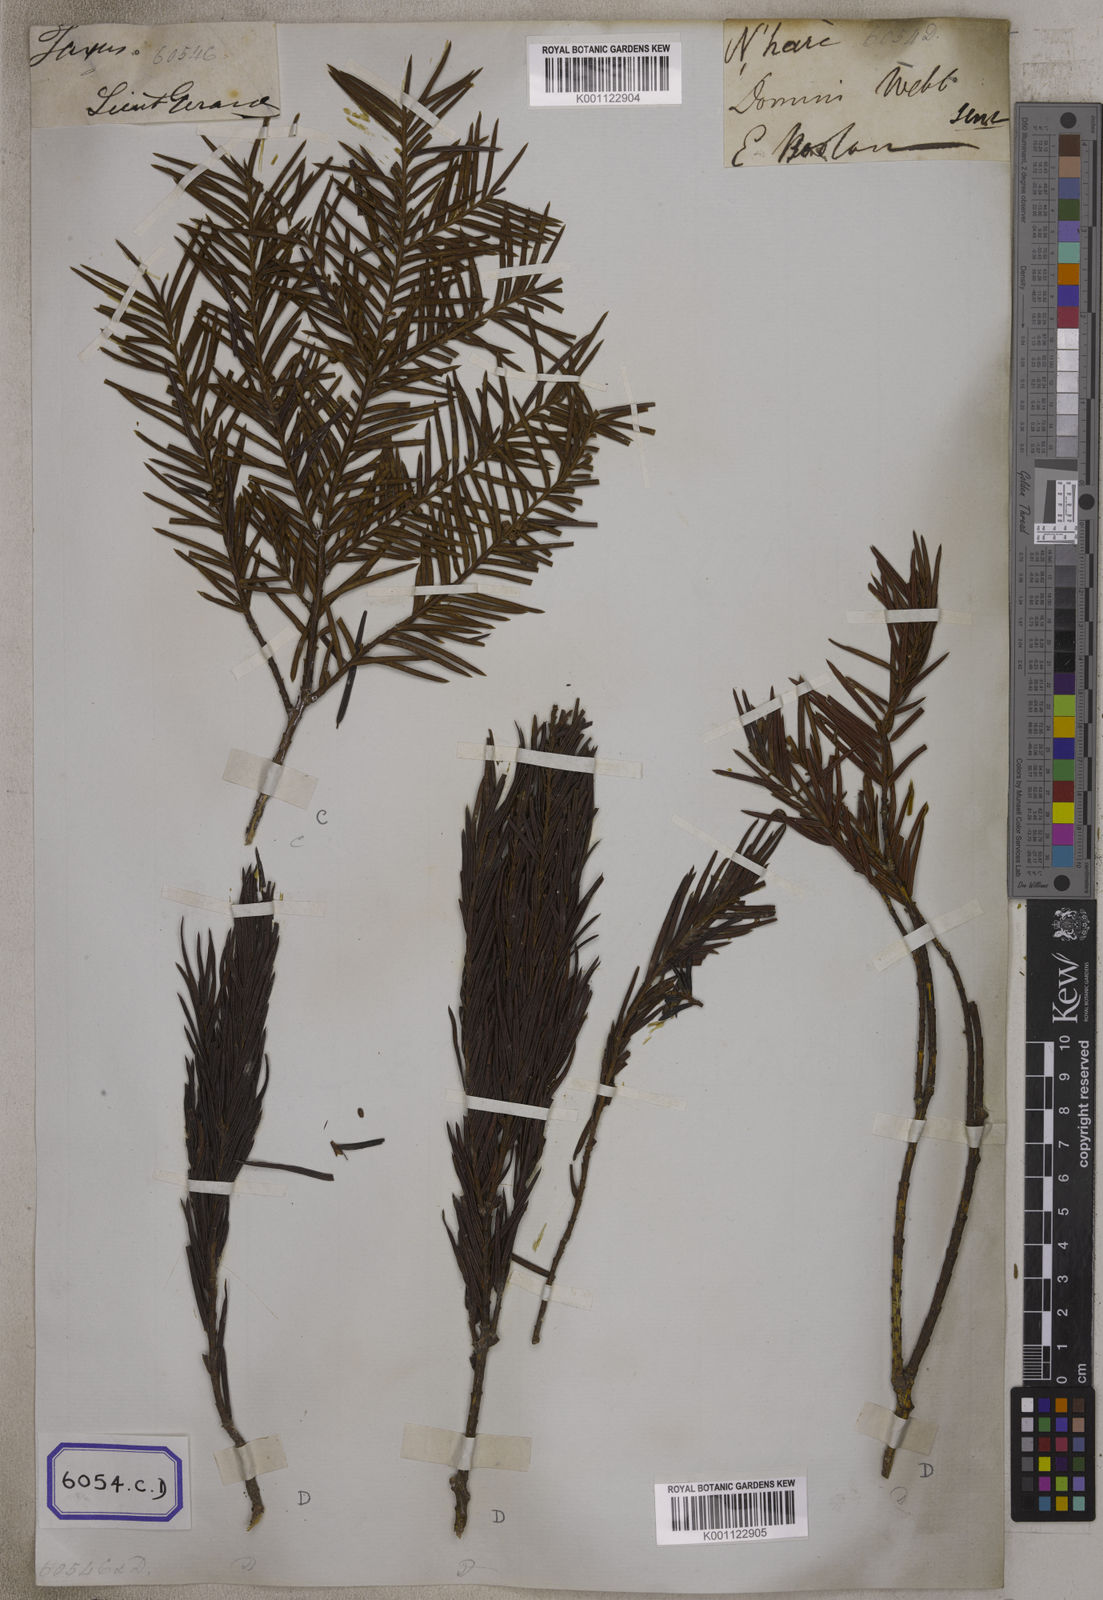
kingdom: Plantae
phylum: Tracheophyta
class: Pinopsida
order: Pinales
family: Taxaceae
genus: Torreya
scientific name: Torreya nucifera
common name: Japanese nutmeg tree
